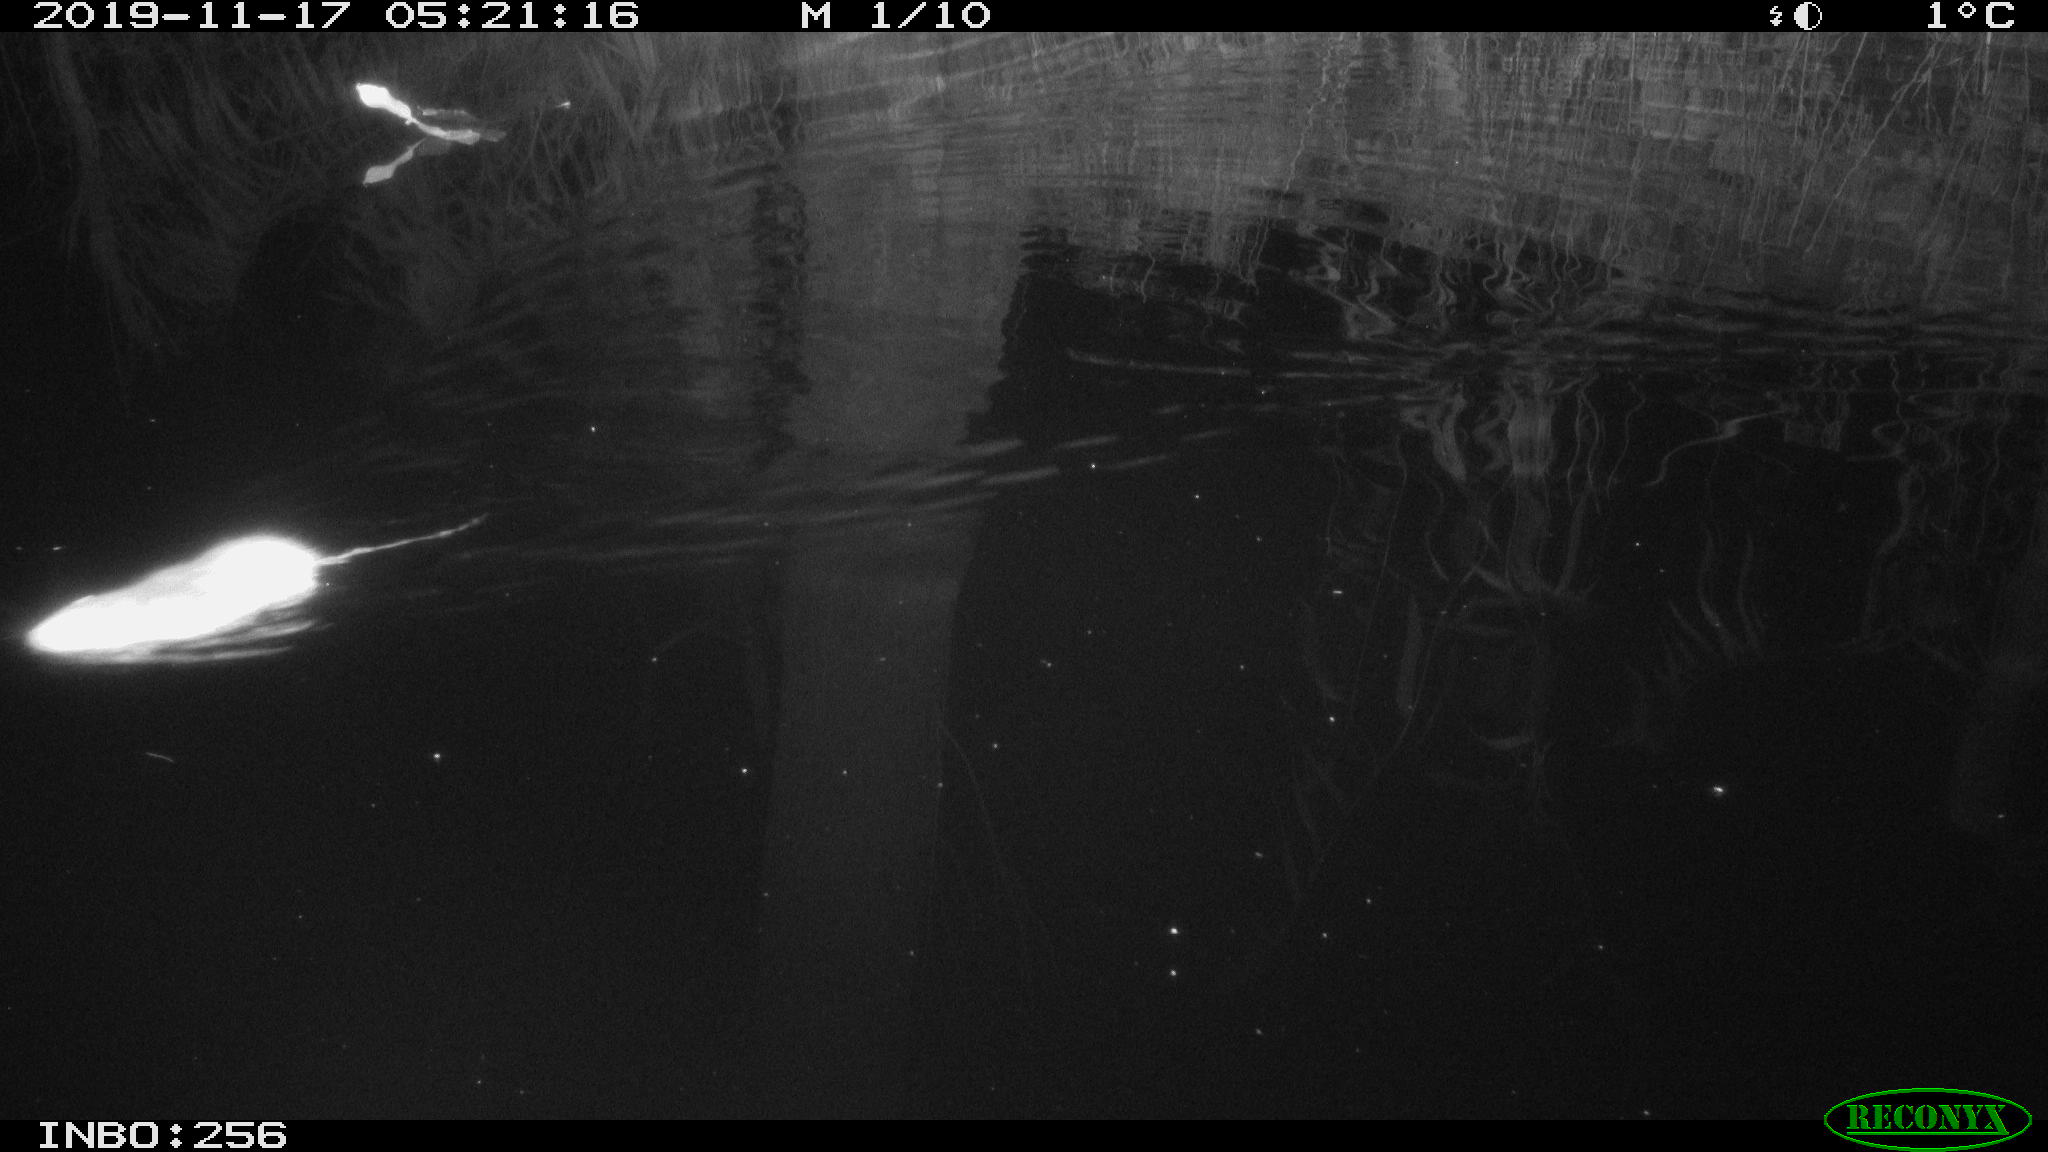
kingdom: Animalia
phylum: Chordata
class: Mammalia
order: Rodentia
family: Muridae
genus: Rattus
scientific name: Rattus norvegicus
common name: Brown rat
